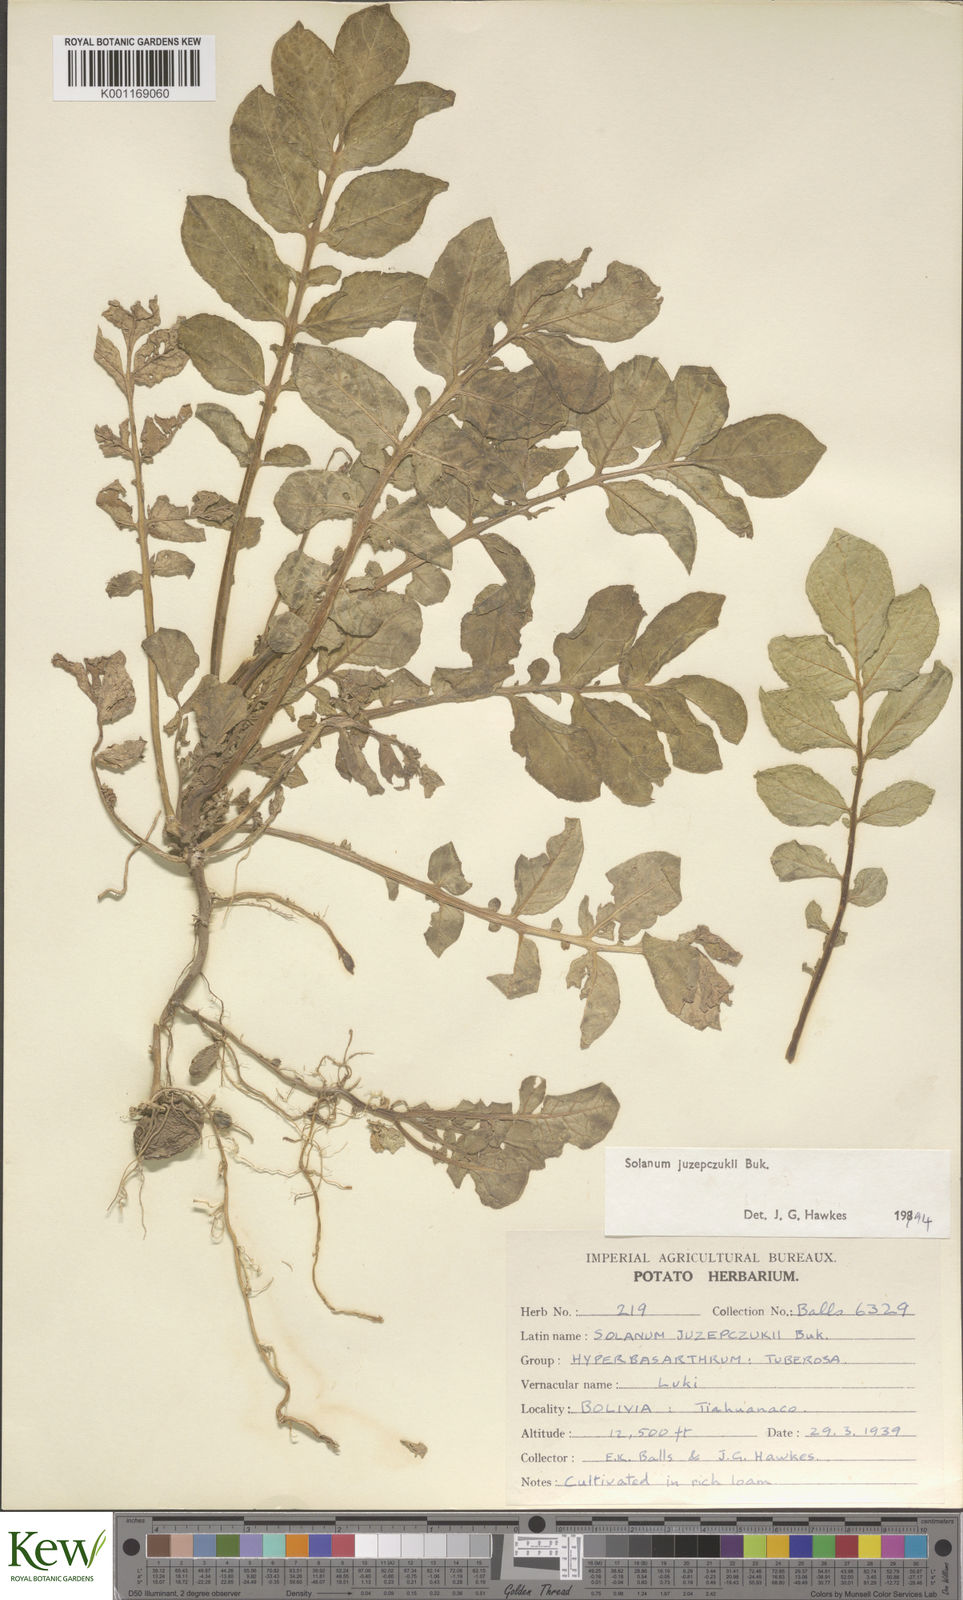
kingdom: Plantae
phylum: Tracheophyta
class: Magnoliopsida
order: Solanales
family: Solanaceae
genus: Solanum
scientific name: Solanum juzepczukii
